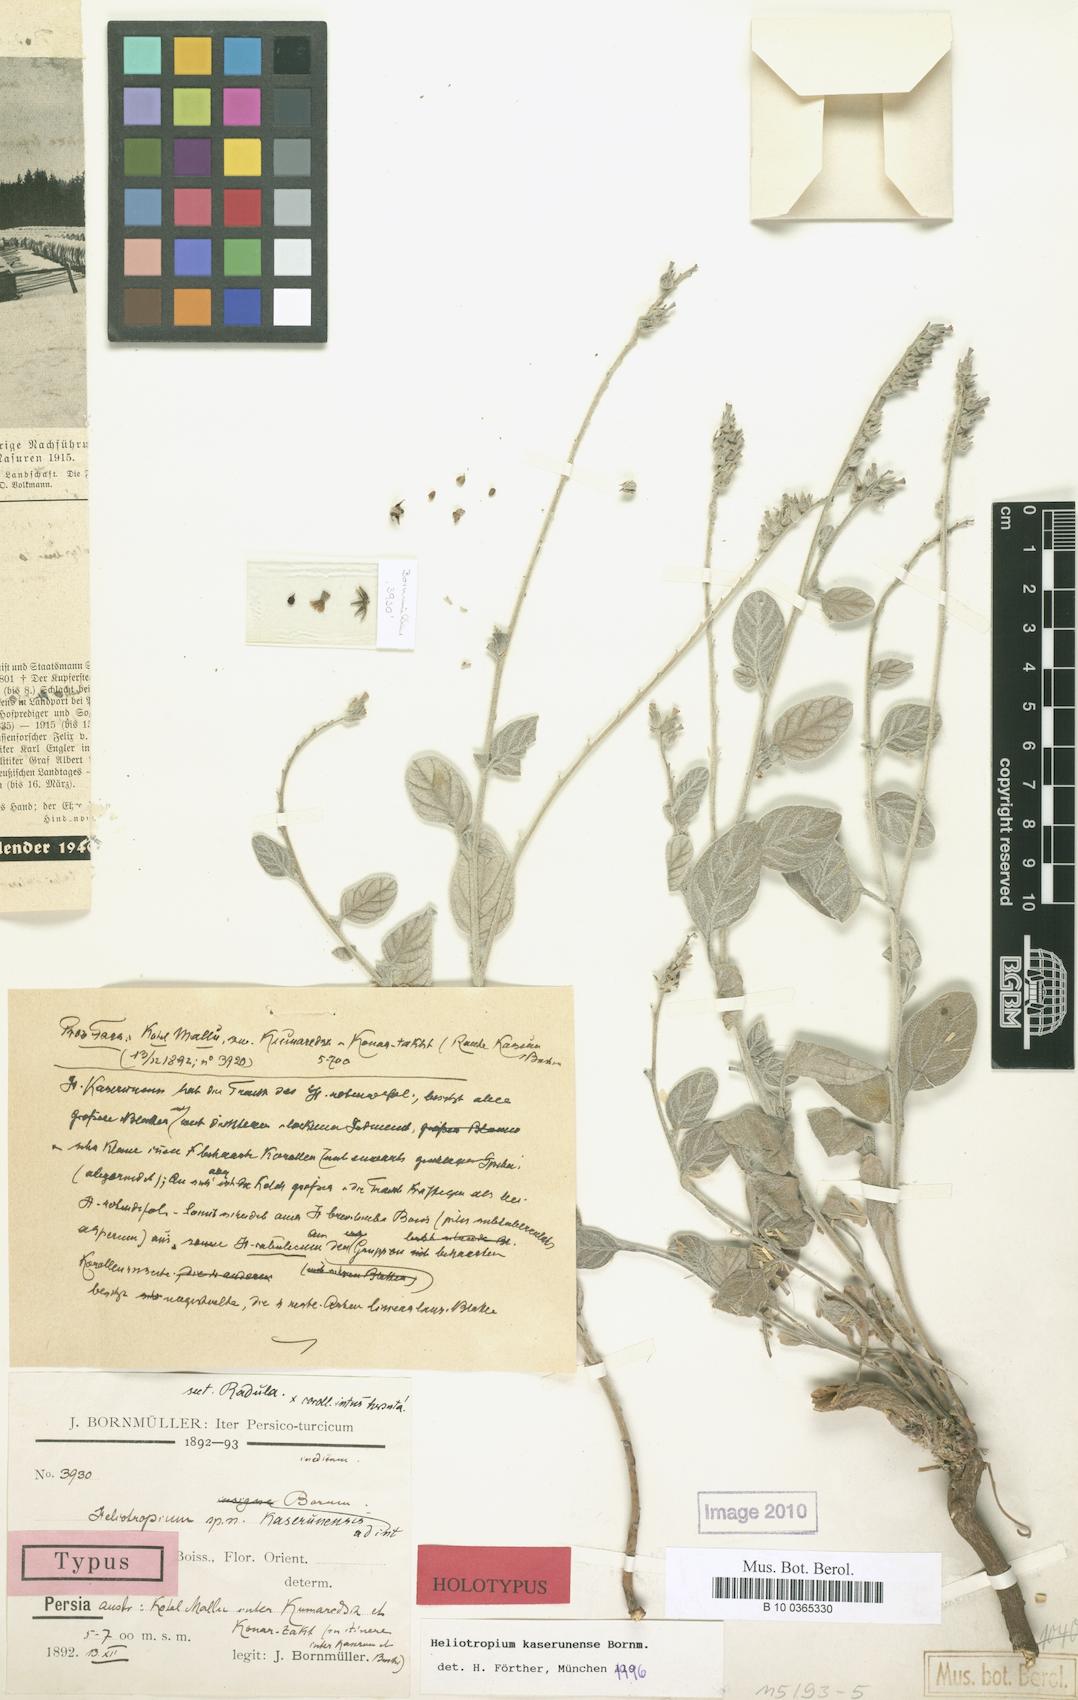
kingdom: Plantae
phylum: Tracheophyta
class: Magnoliopsida
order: Boraginales
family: Heliotropiaceae
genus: Heliotropium
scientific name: Heliotropium kaserunense
